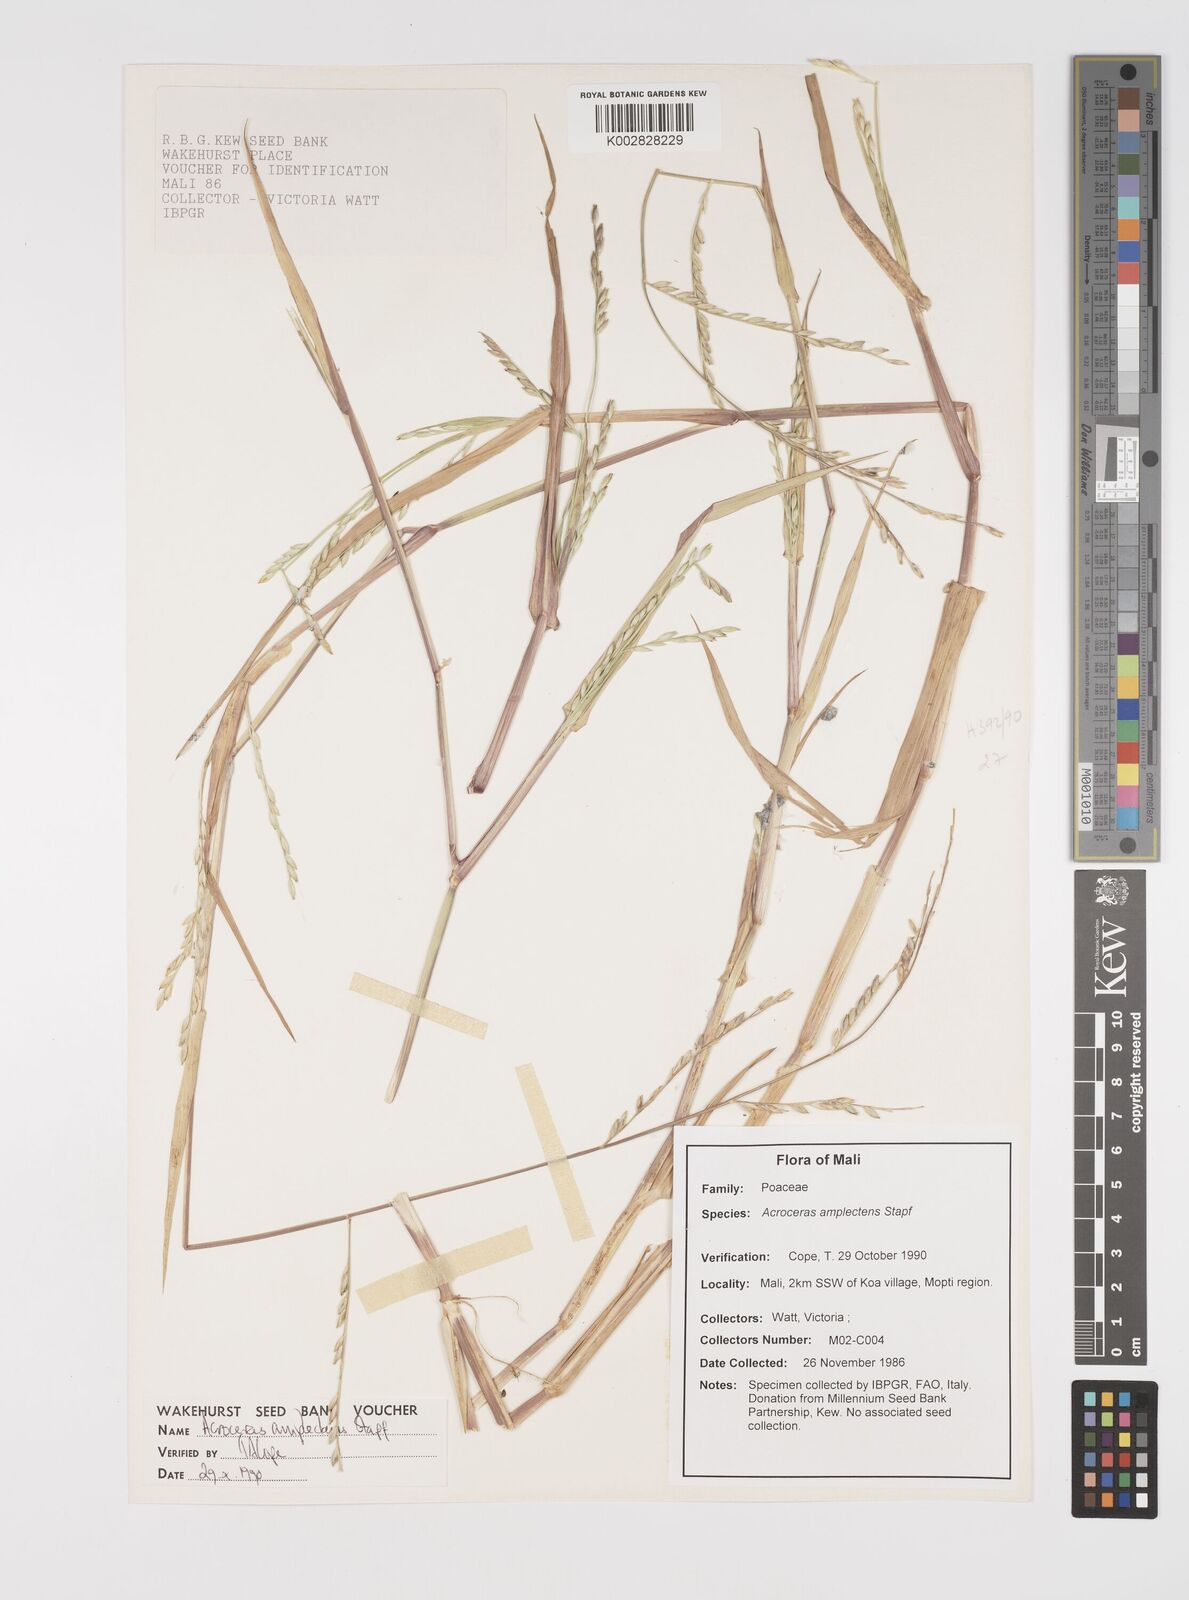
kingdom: Plantae
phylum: Tracheophyta
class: Liliopsida
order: Poales
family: Poaceae
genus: Acroceras
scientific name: Acroceras amplectens
